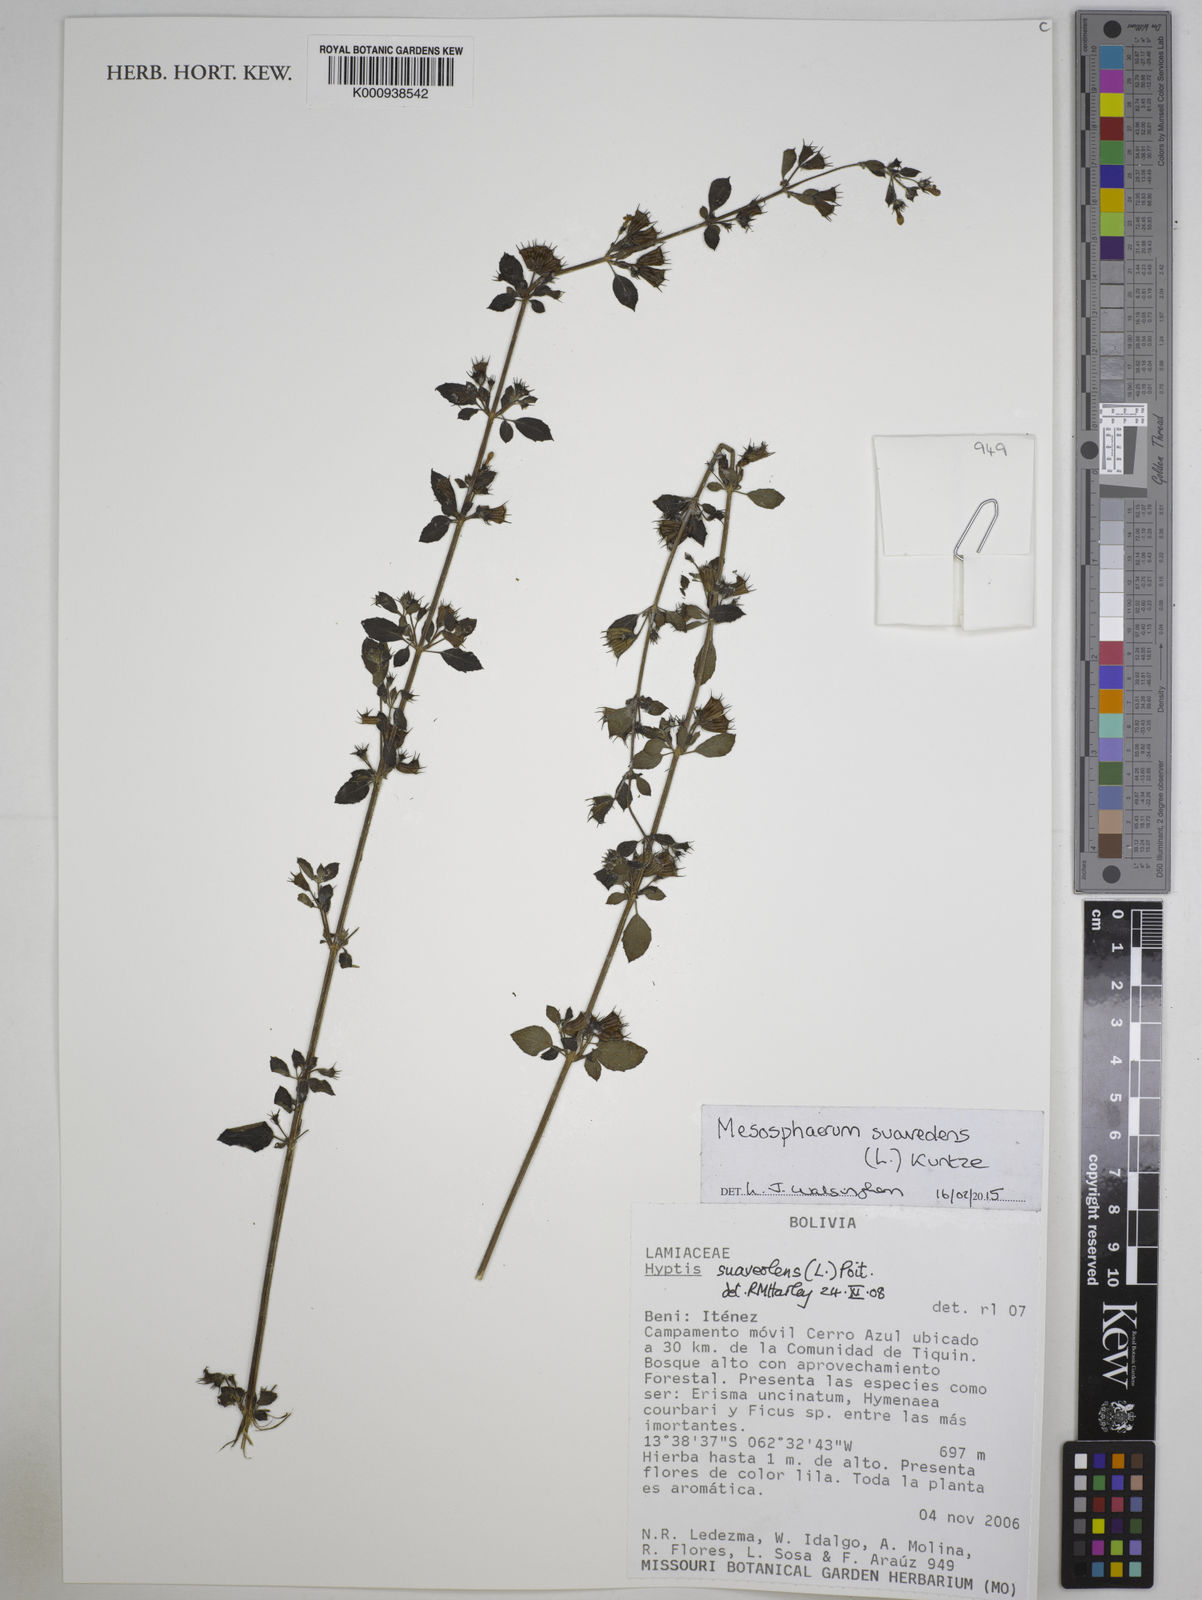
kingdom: Plantae
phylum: Tracheophyta
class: Magnoliopsida
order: Lamiales
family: Lamiaceae
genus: Mesosphaerum
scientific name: Mesosphaerum suaveolens
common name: Pignut
